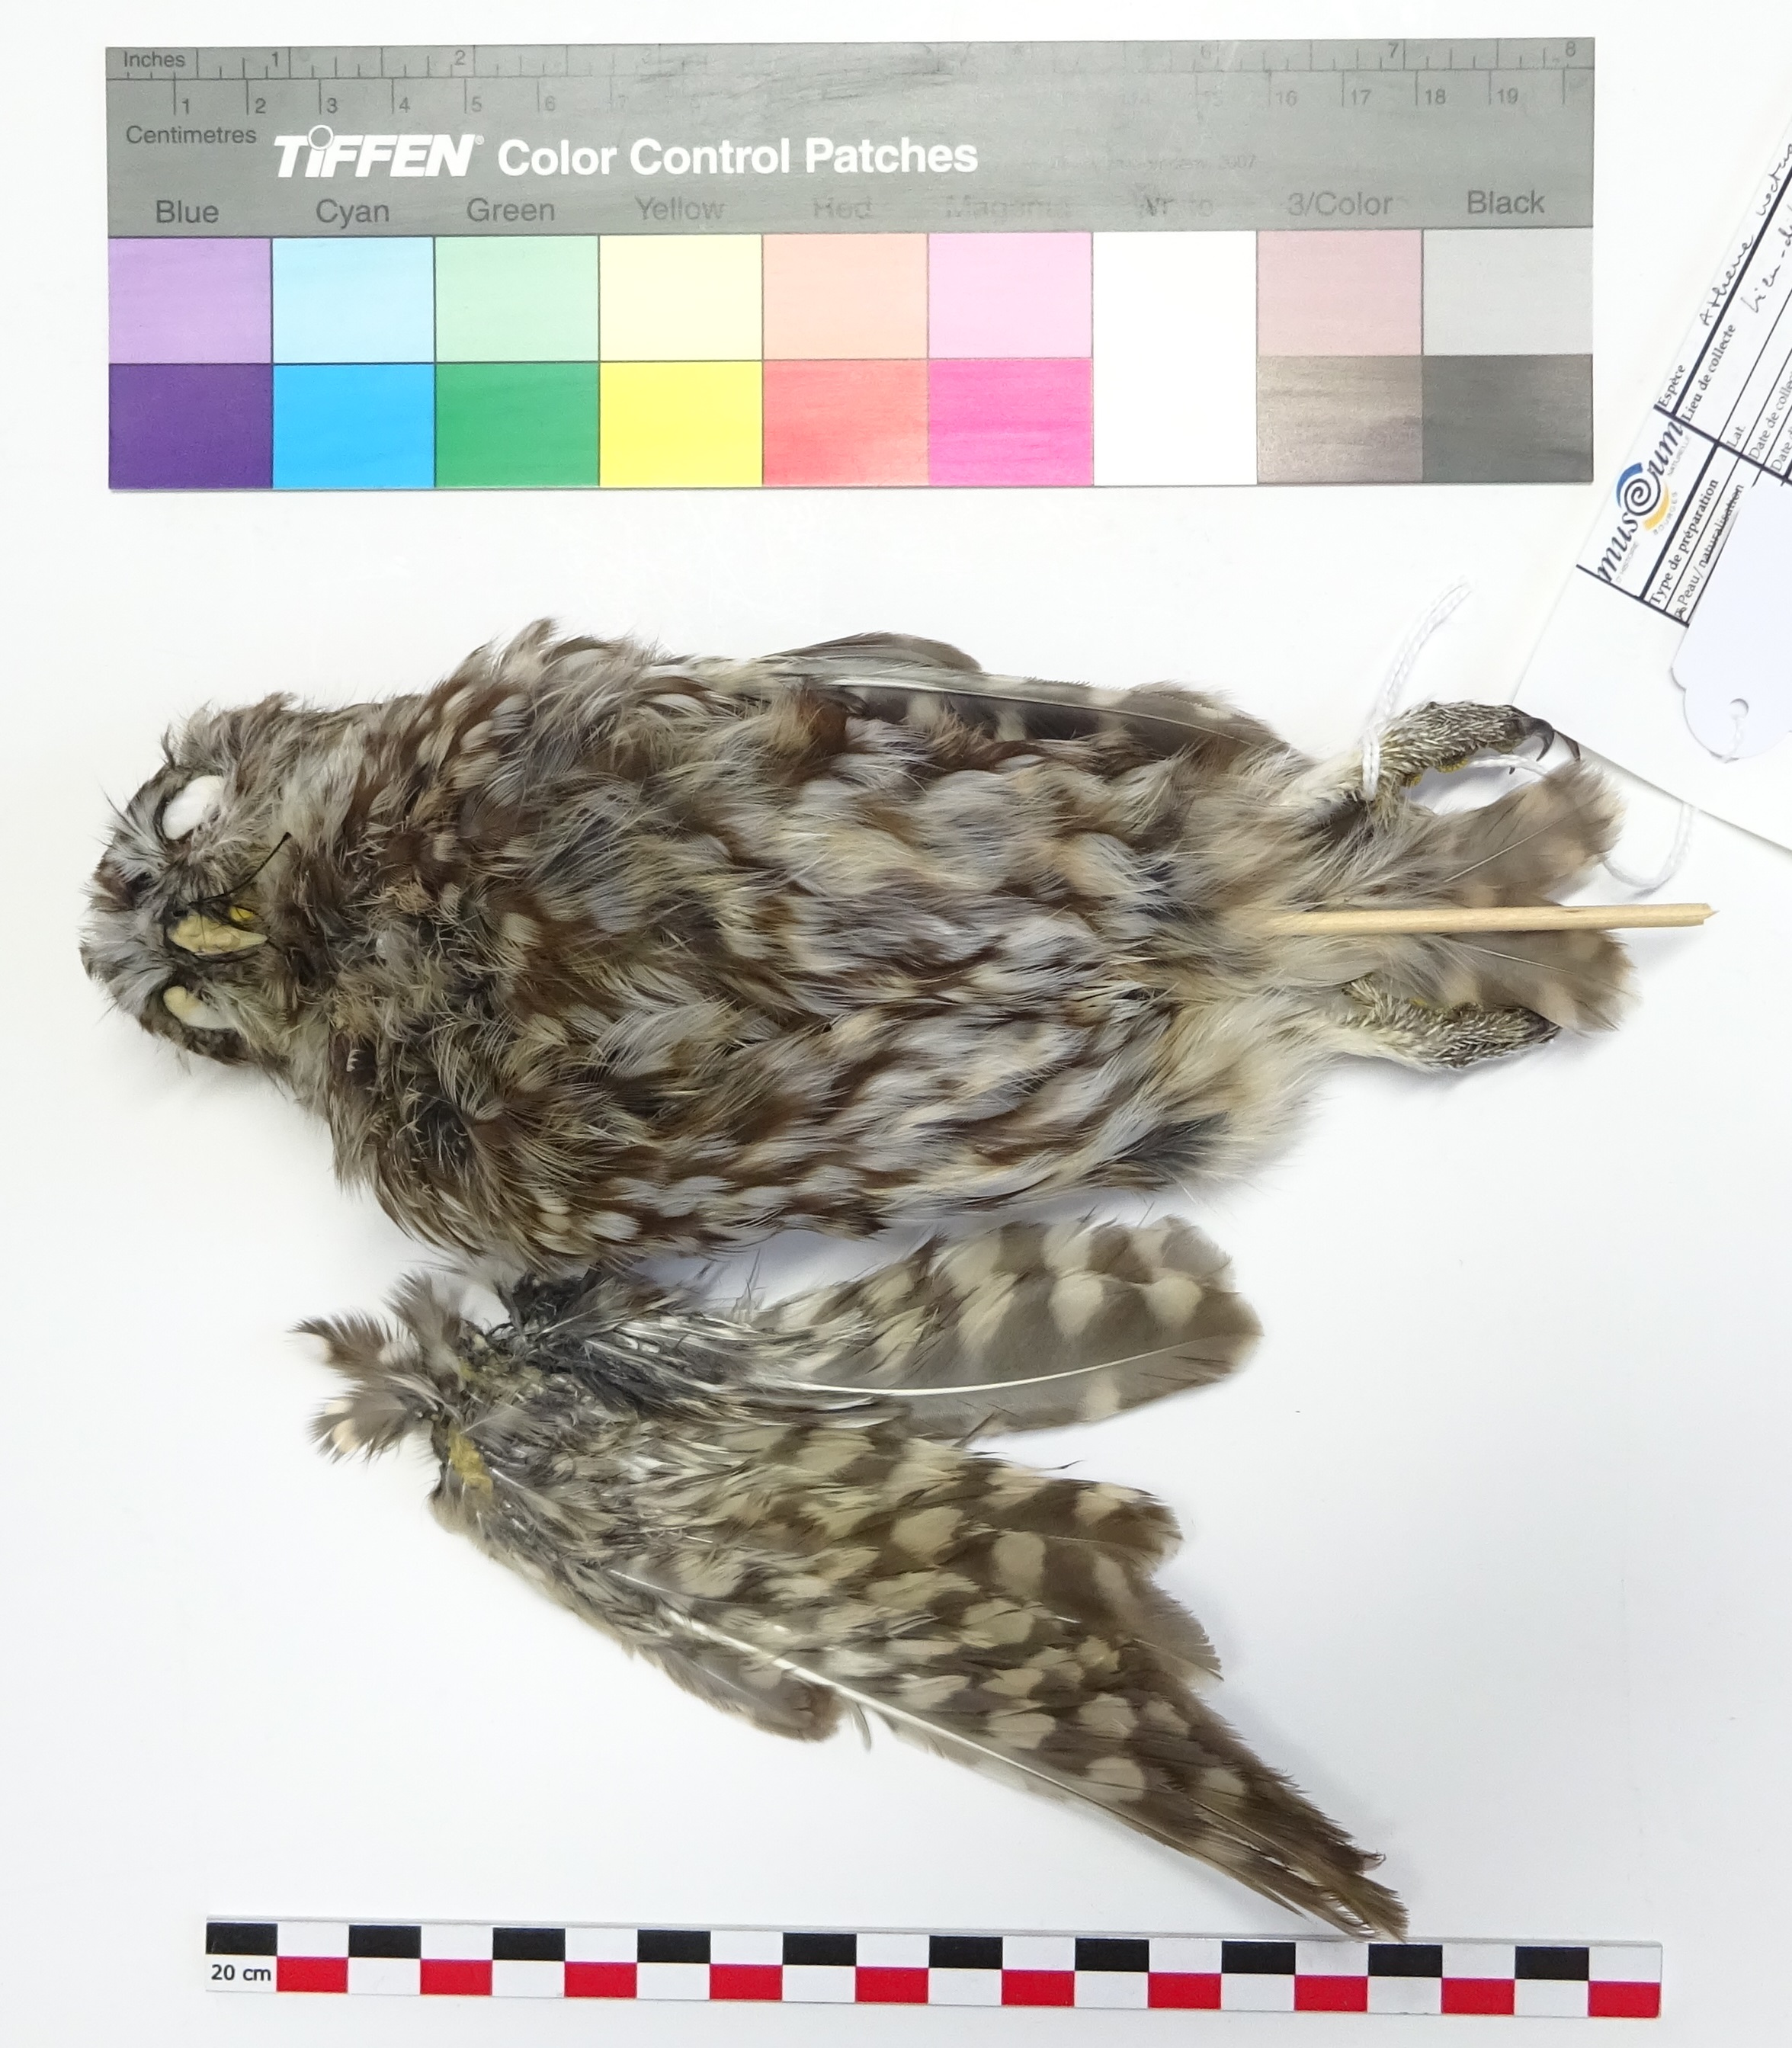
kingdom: Animalia
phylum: Chordata
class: Aves
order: Strigiformes
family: Strigidae
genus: Athene
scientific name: Athene noctua
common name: Little owl
